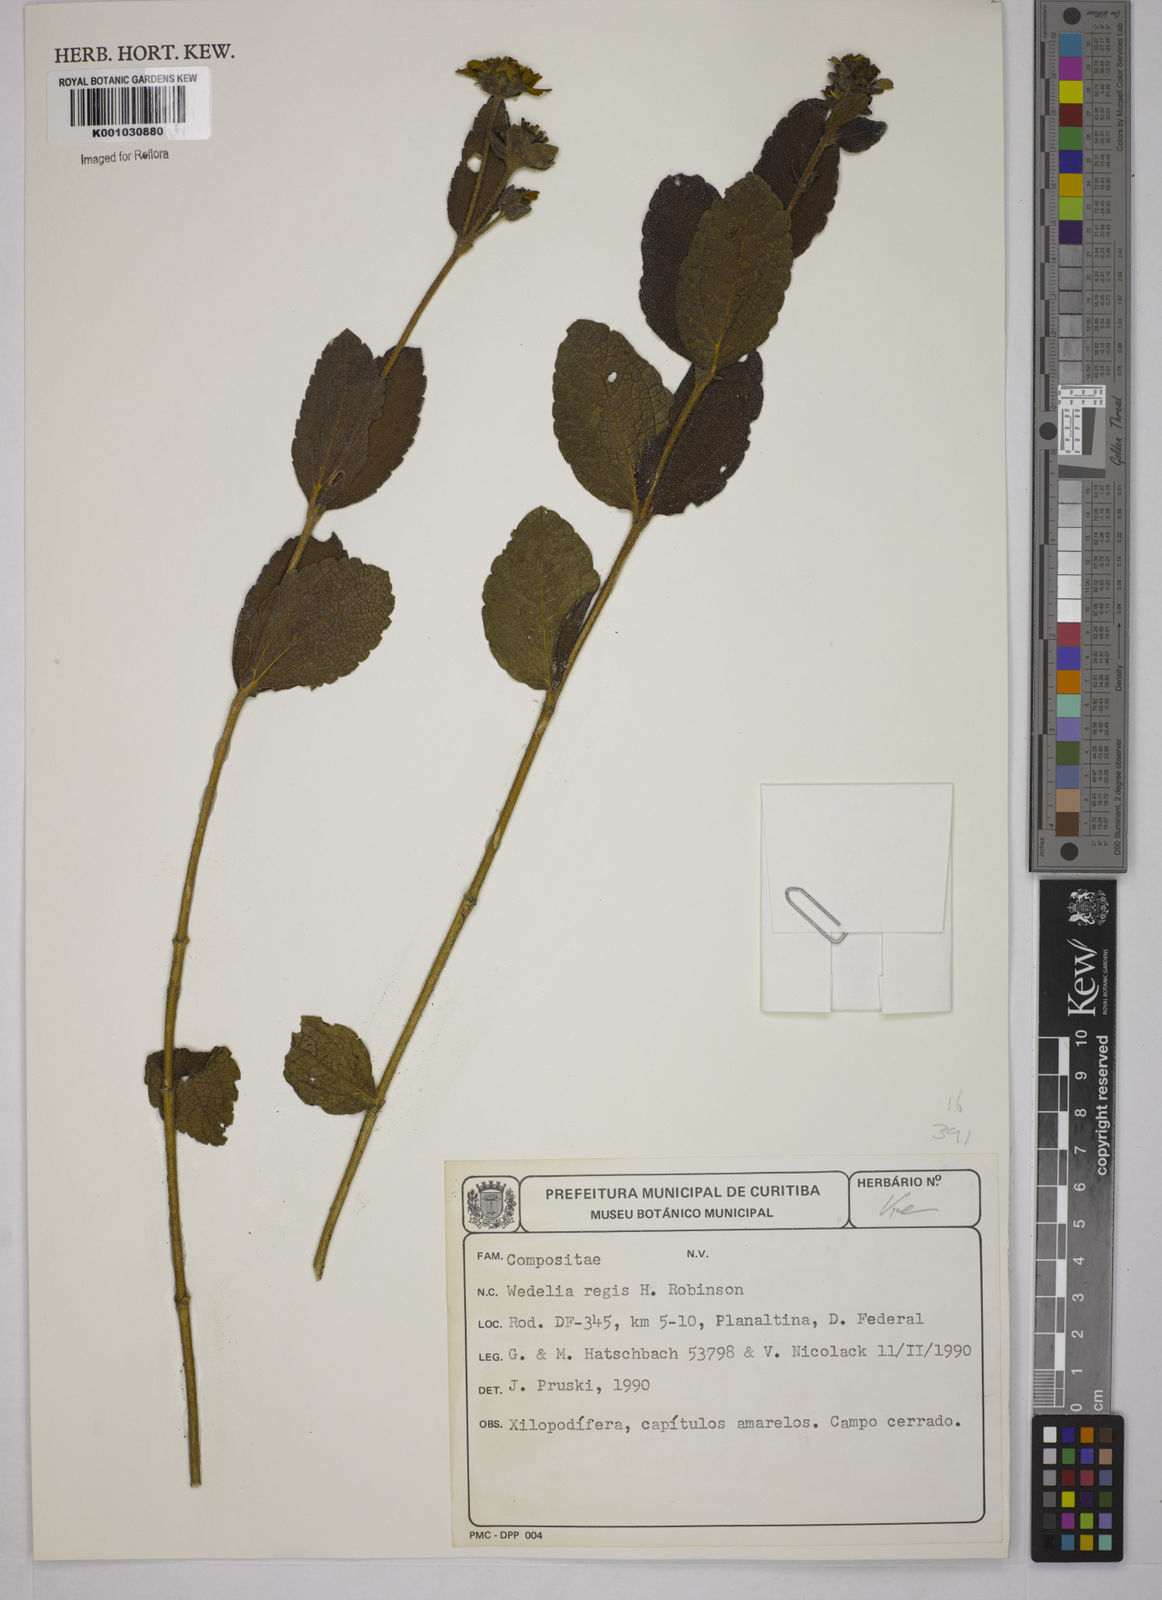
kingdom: Plantae
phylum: Tracheophyta
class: Magnoliopsida
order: Asterales
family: Asteraceae
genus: Wedelia
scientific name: Wedelia regis
